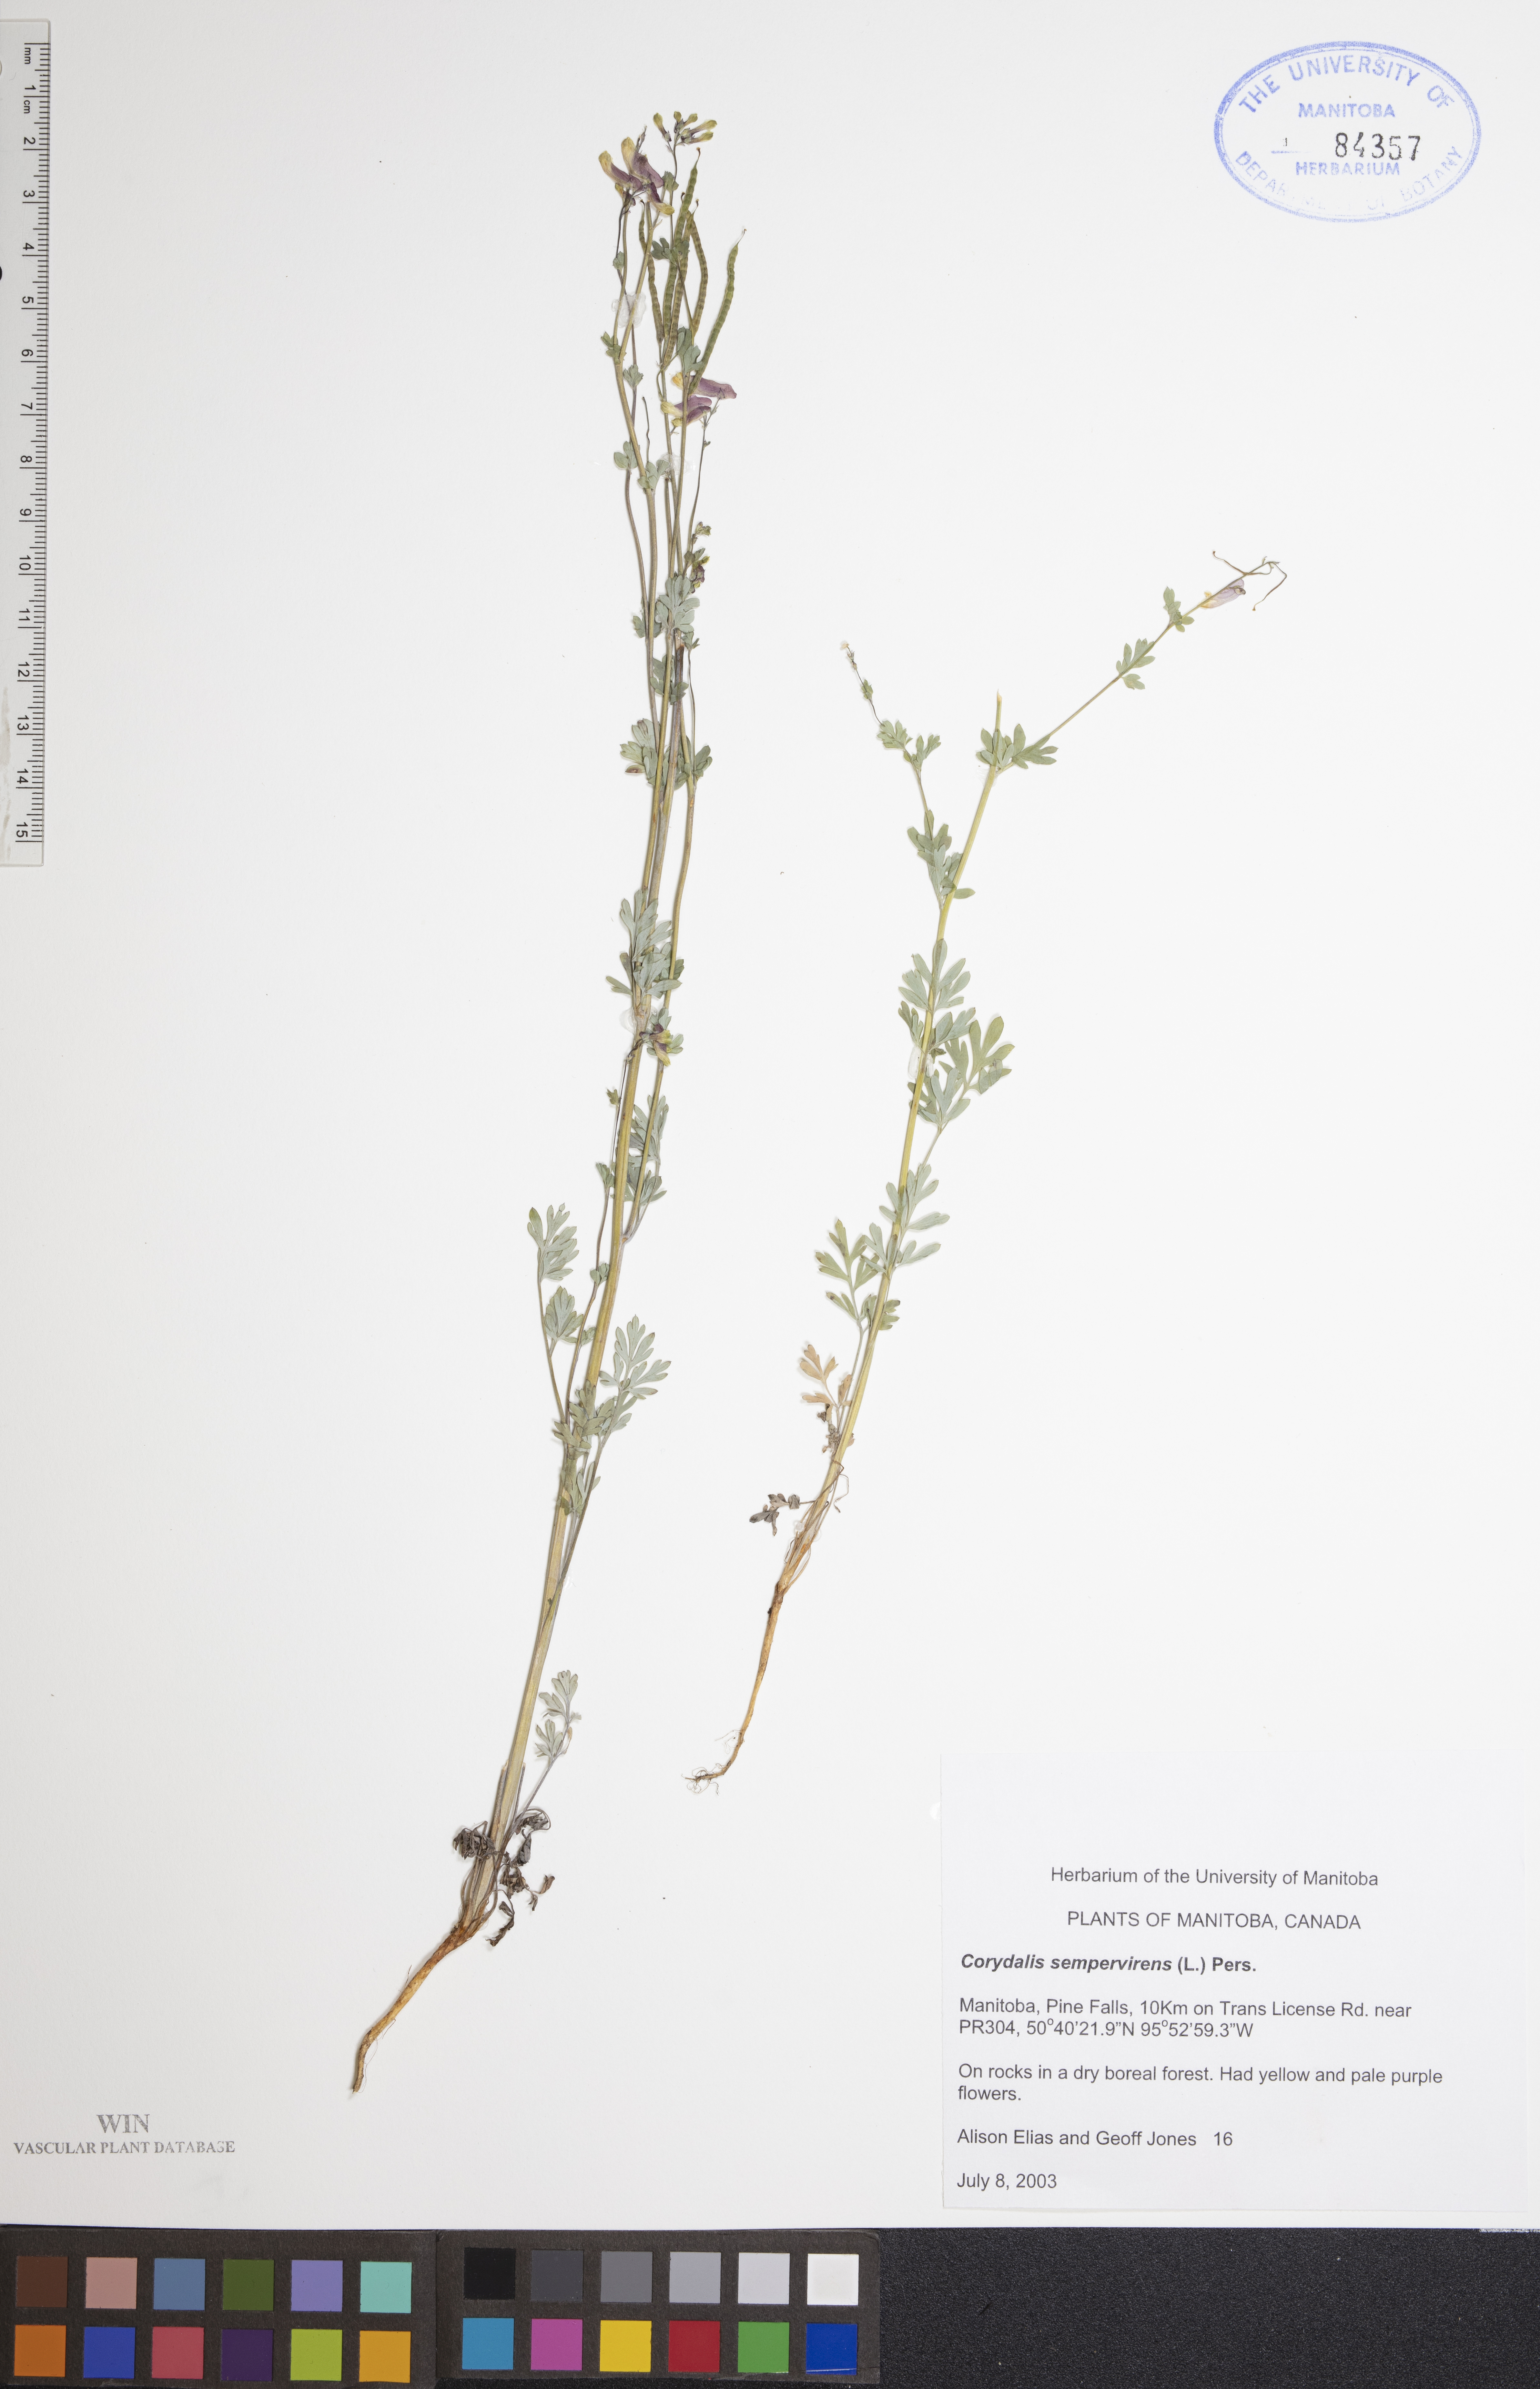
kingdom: Plantae
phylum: Tracheophyta
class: Magnoliopsida
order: Ranunculales
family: Papaveraceae
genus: Capnoides
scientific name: Capnoides sempervirens
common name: Rock harlequin
